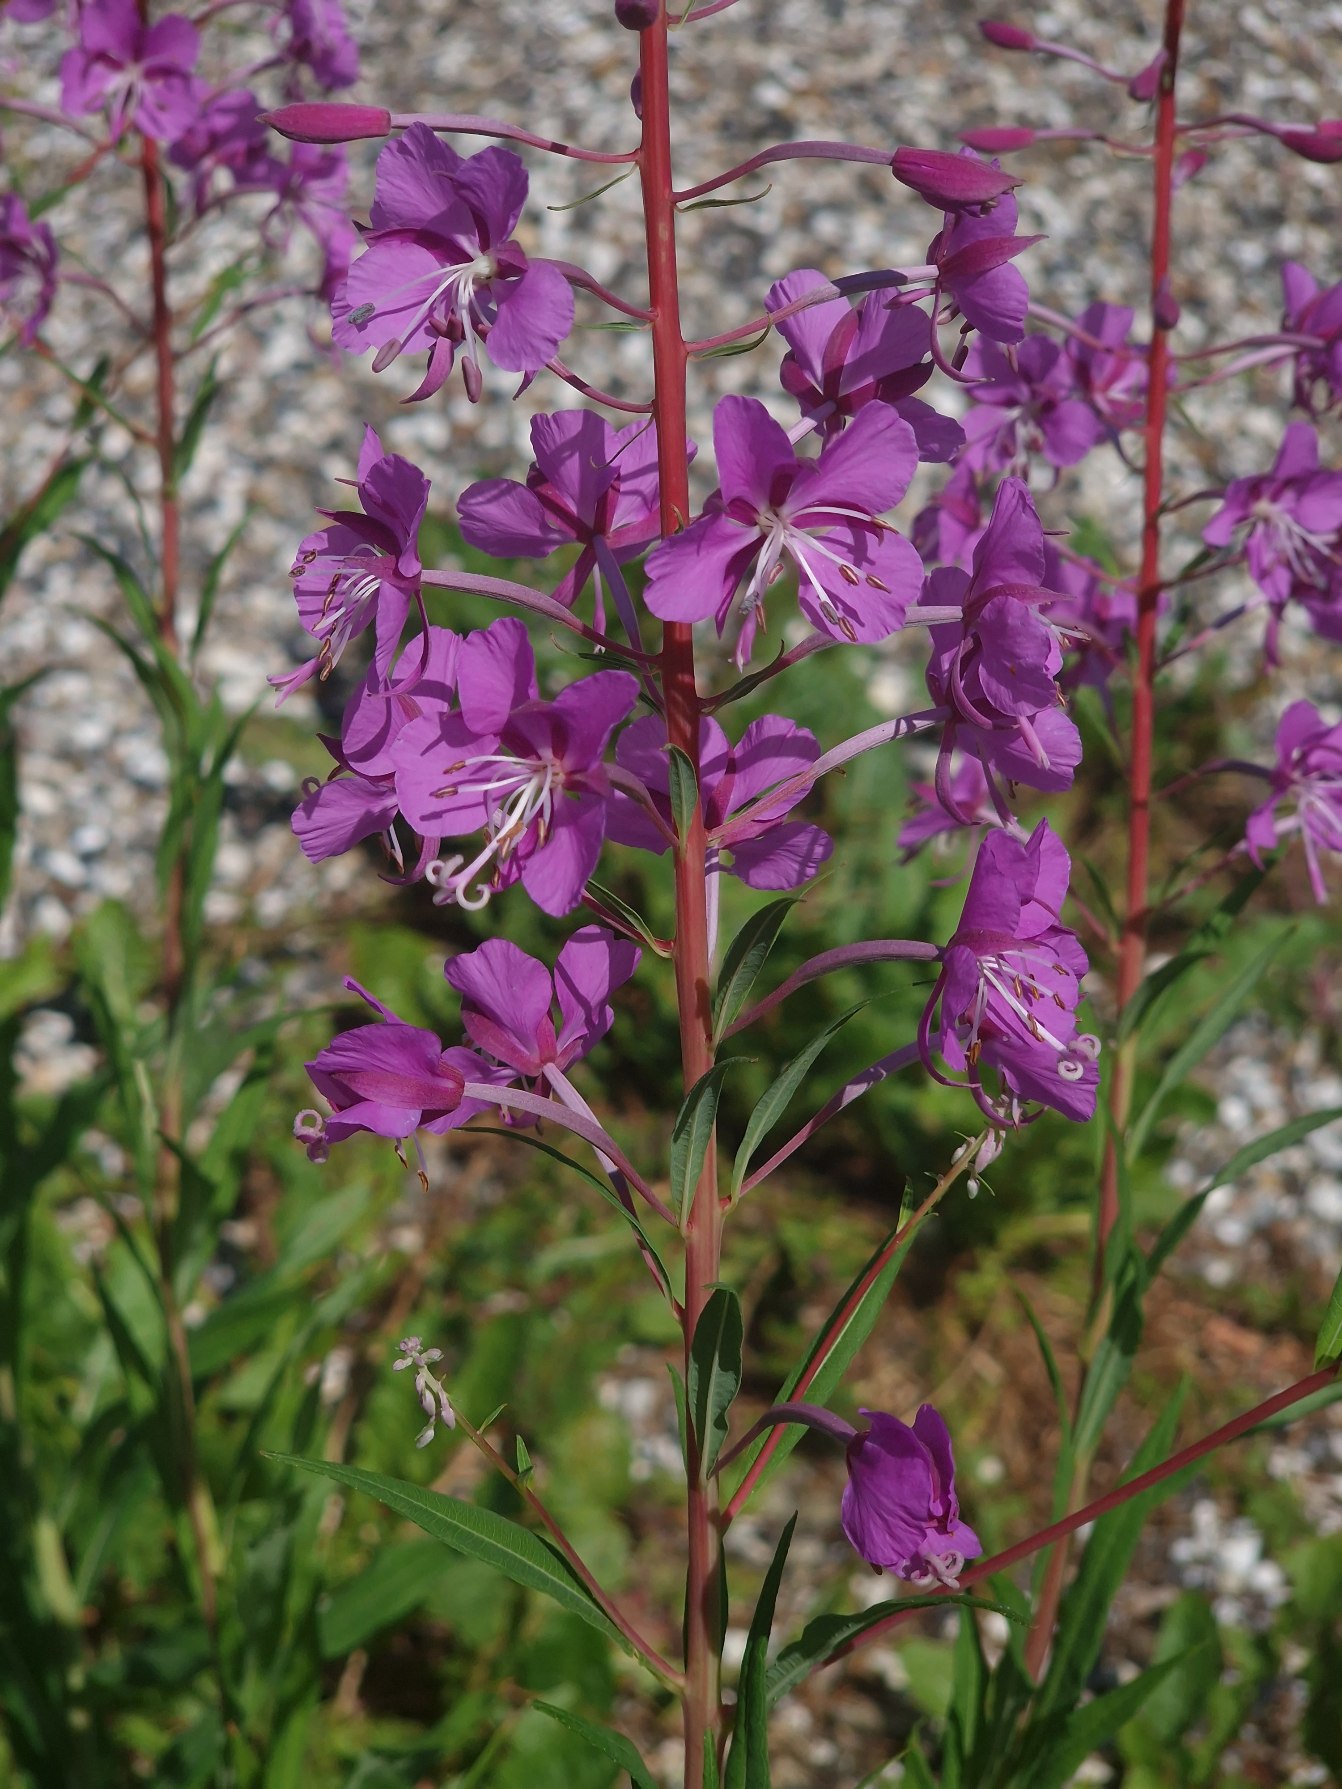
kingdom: Plantae
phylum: Tracheophyta
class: Magnoliopsida
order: Myrtales
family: Onagraceae
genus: Chamaenerion
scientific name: Chamaenerion angustifolium
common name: Gederams
